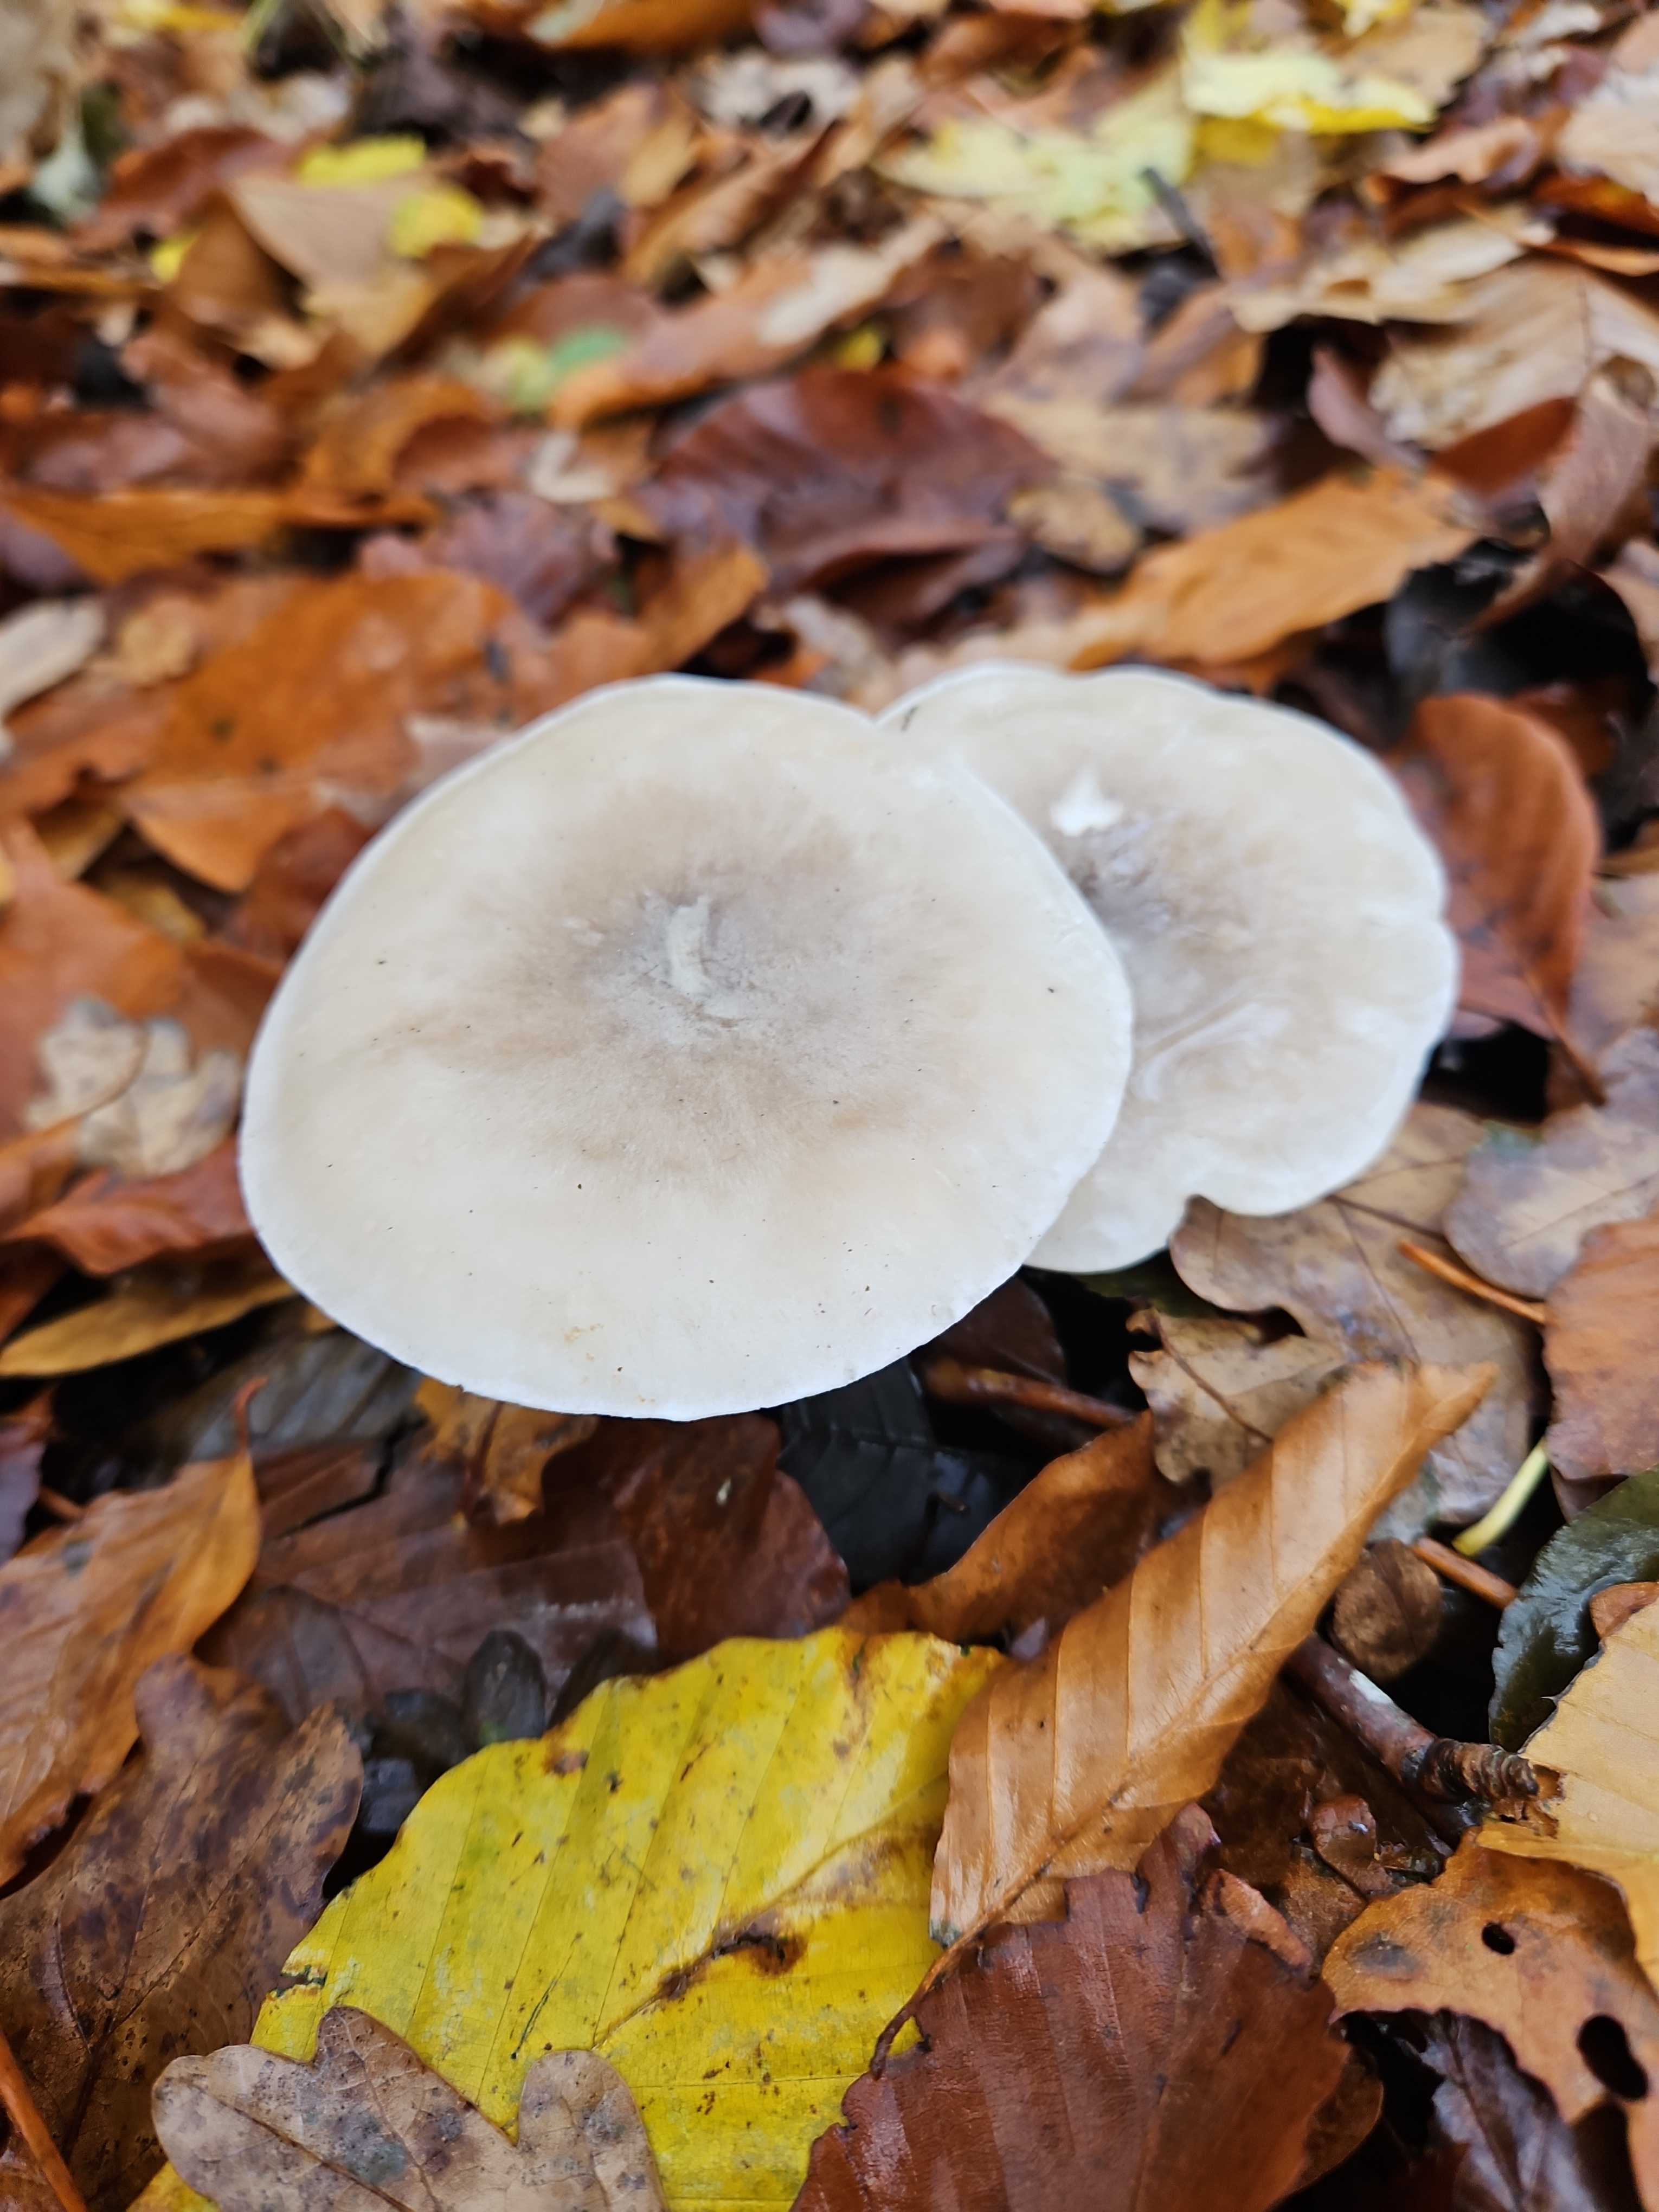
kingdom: Fungi
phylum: Basidiomycota
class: Agaricomycetes
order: Agaricales
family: Tricholomataceae
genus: Clitocybe
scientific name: Clitocybe nebularis
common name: tåge-tragthat
